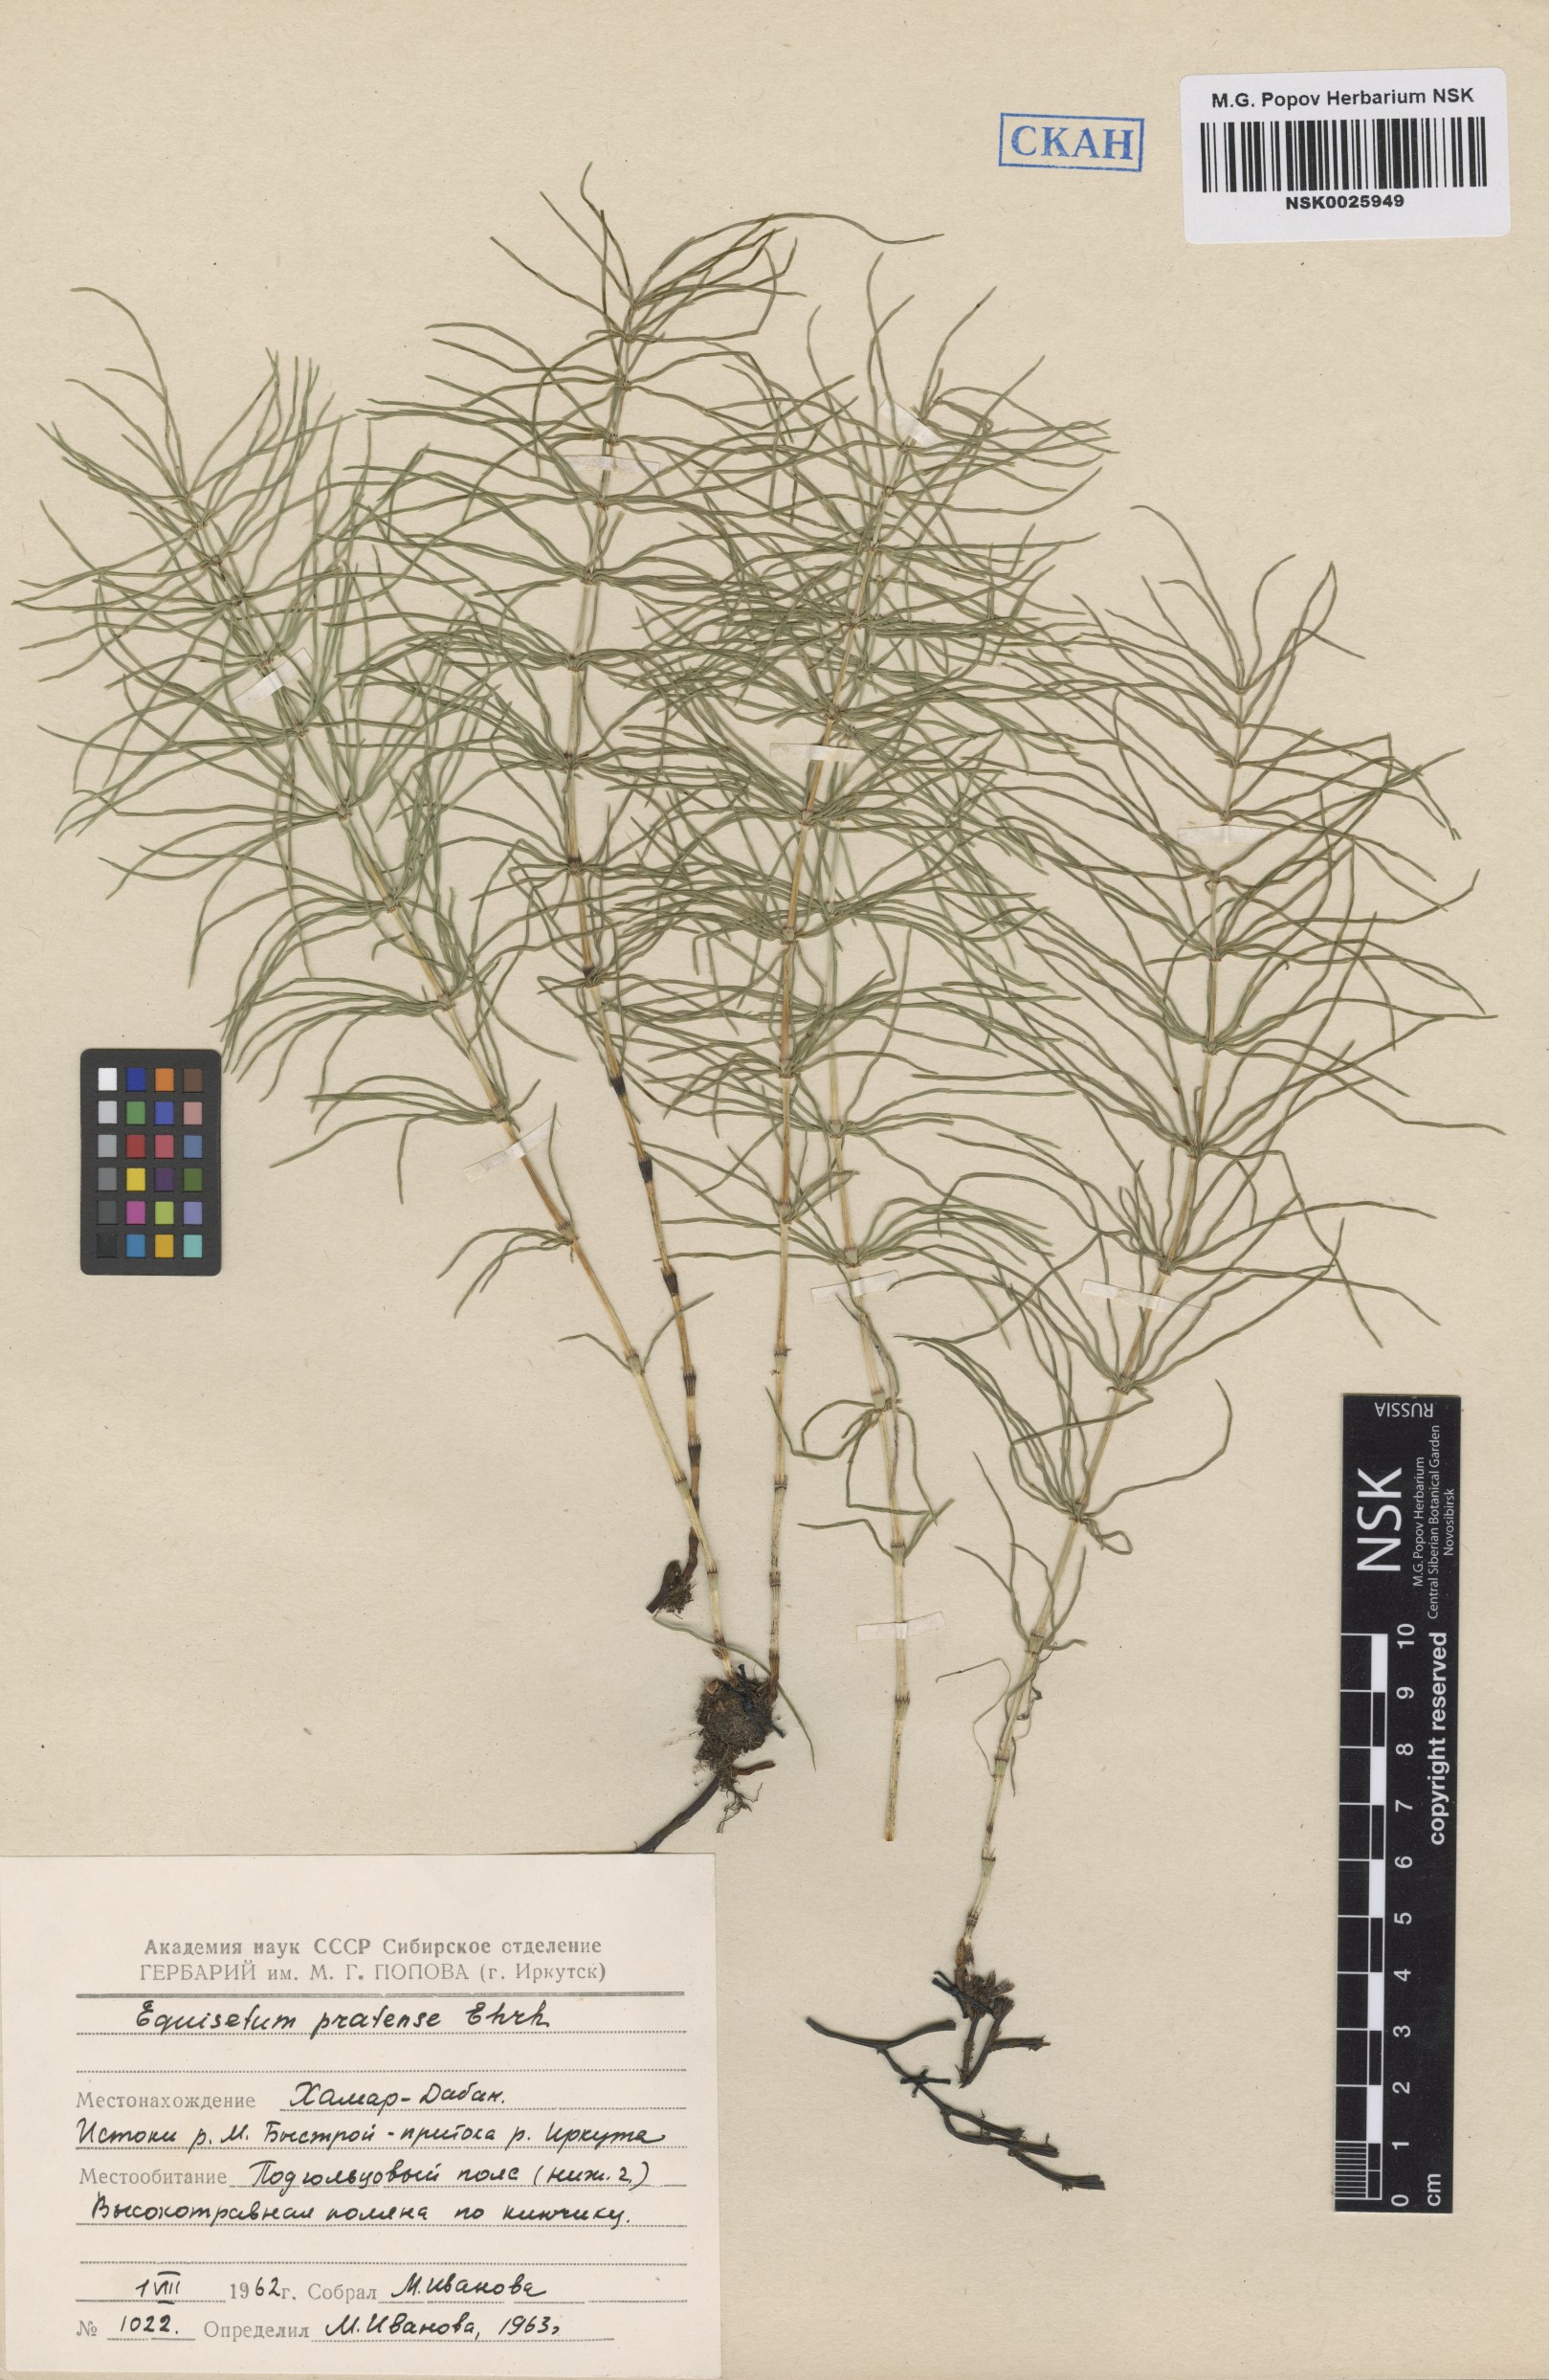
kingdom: Plantae
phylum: Tracheophyta
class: Polypodiopsida
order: Equisetales
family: Equisetaceae
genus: Equisetum
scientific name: Equisetum pratense
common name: Meadow horsetail
